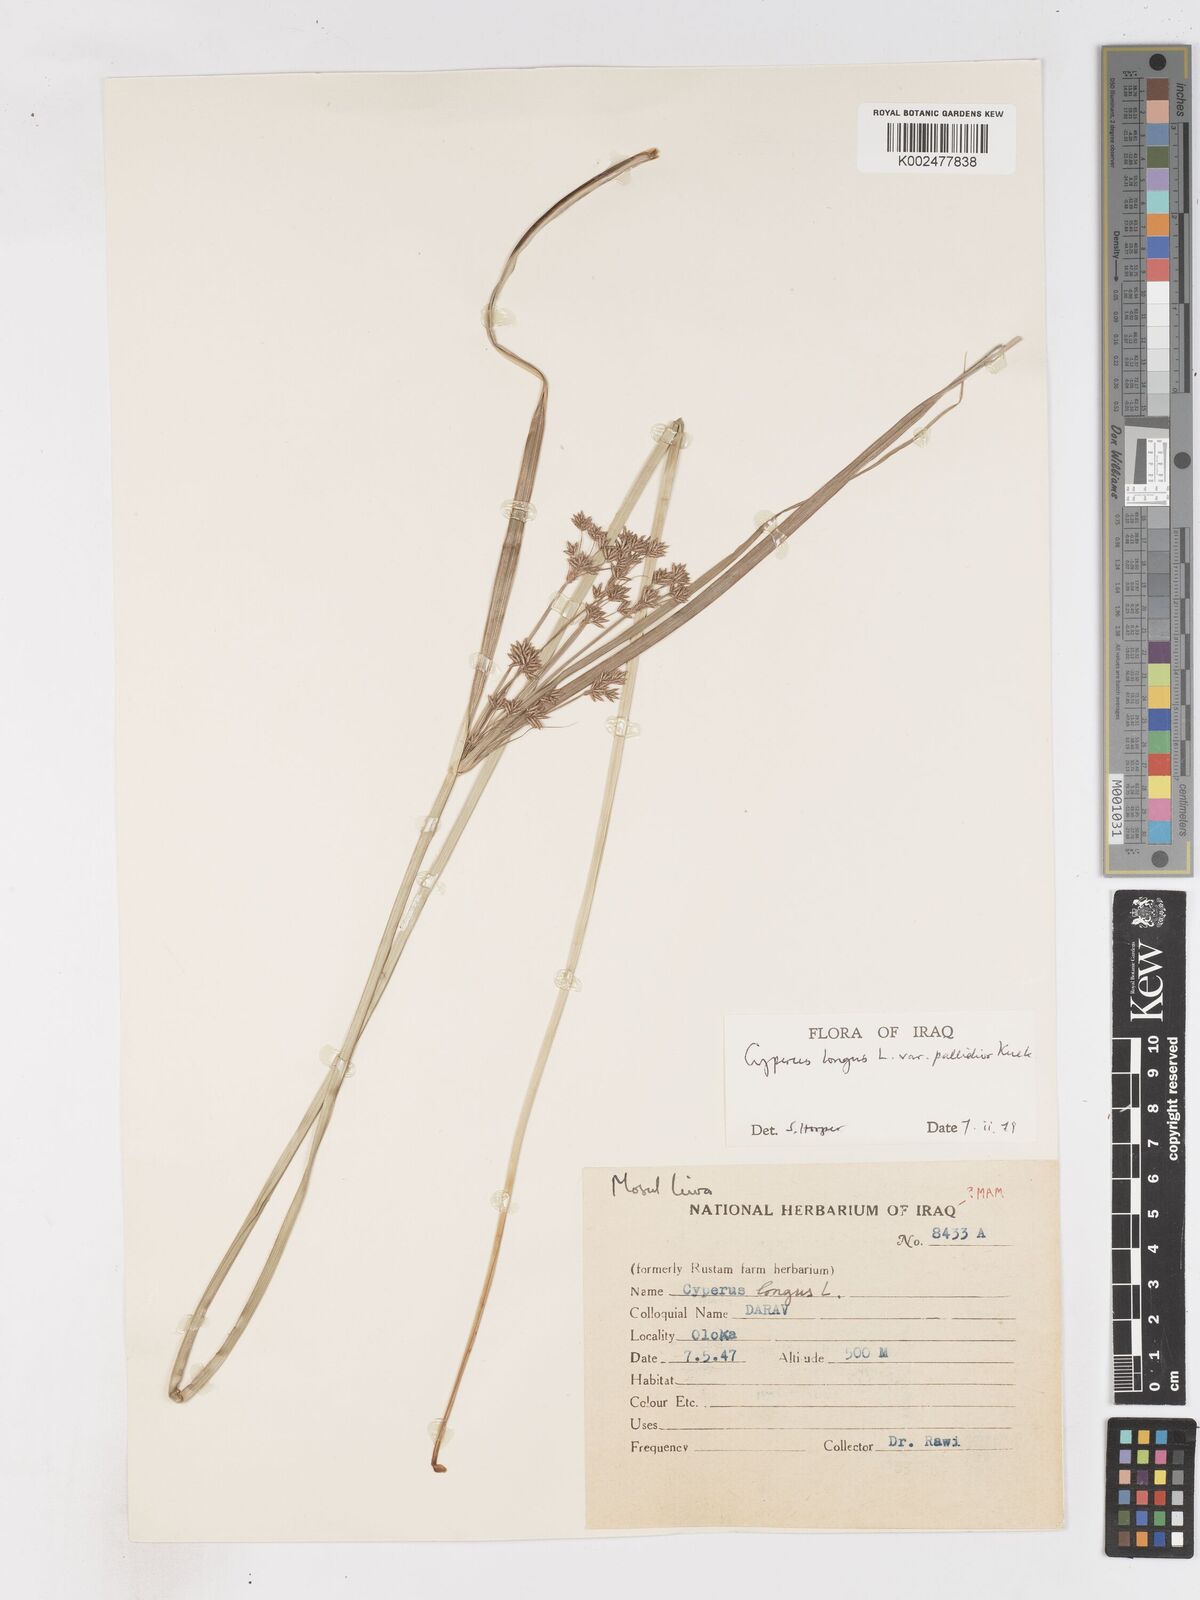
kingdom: Plantae
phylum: Tracheophyta
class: Liliopsida
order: Poales
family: Cyperaceae
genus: Cyperus
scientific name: Cyperus longus
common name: Galingale
